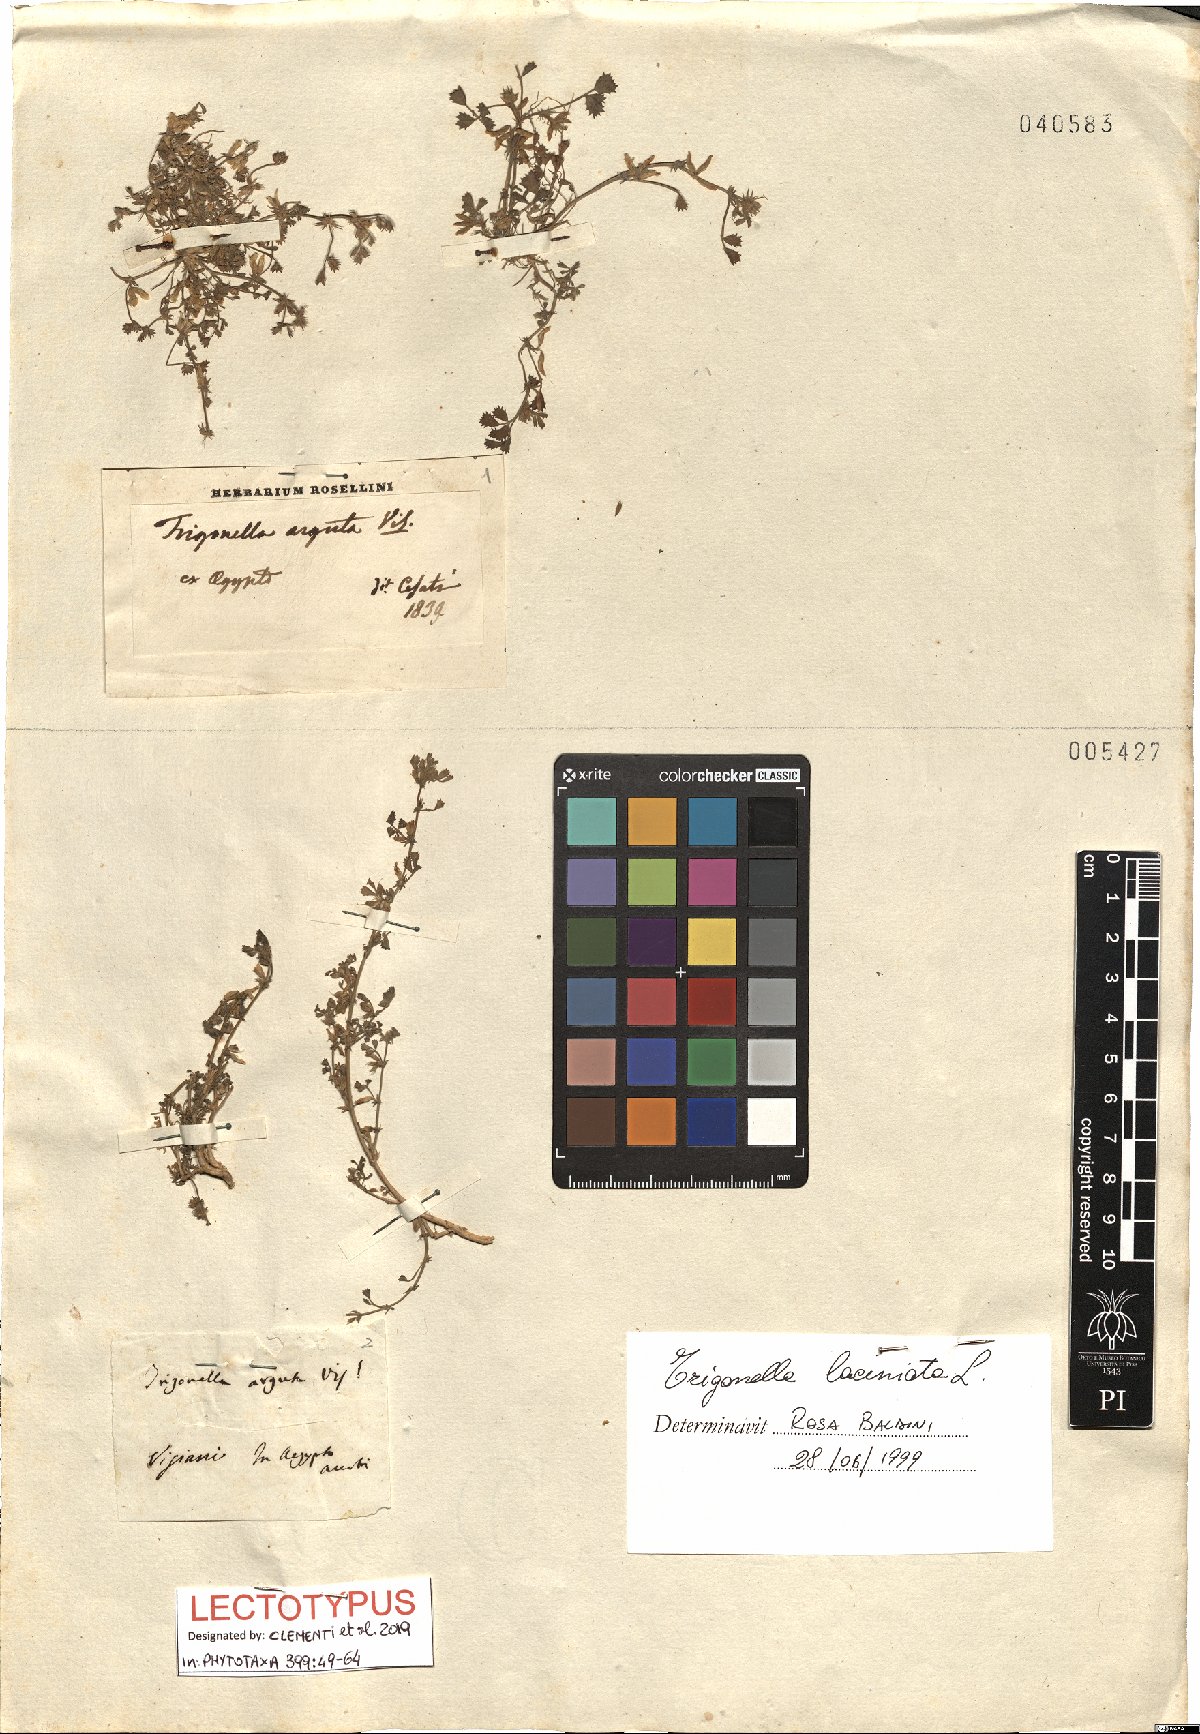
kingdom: Plantae
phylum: Tracheophyta
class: Magnoliopsida
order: Fabales
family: Fabaceae
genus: Trigonella
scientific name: Trigonella laciniata
